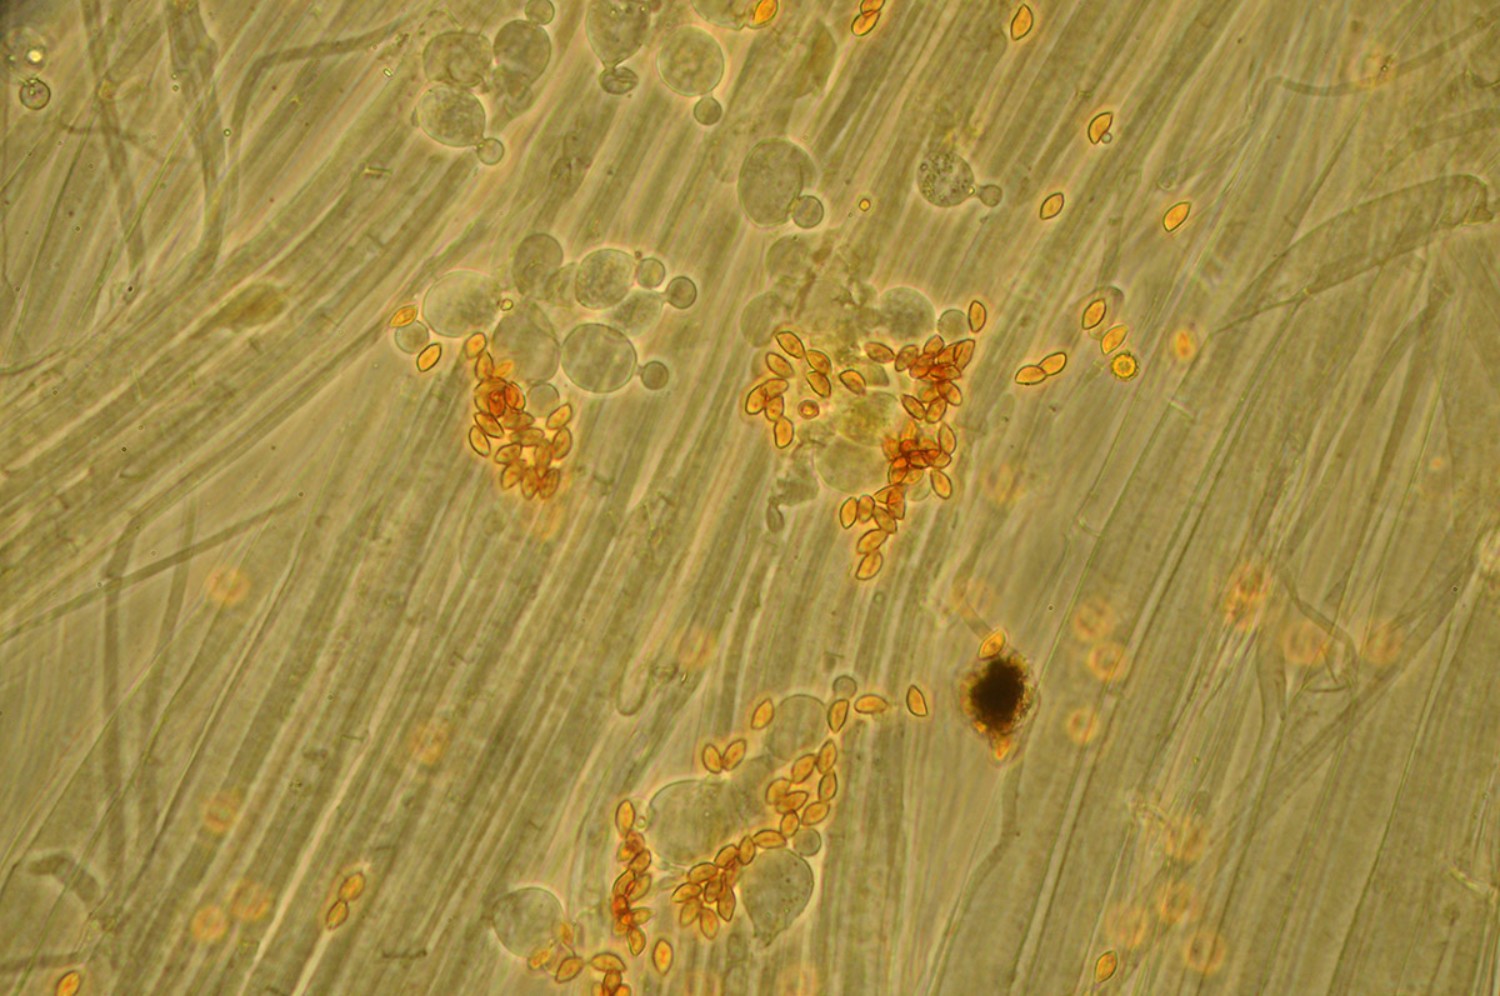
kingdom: Fungi
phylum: Basidiomycota
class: Agaricomycetes
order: Agaricales
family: Bolbitiaceae
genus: Conocybe
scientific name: Conocybe dumetorum
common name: Copse conecap
